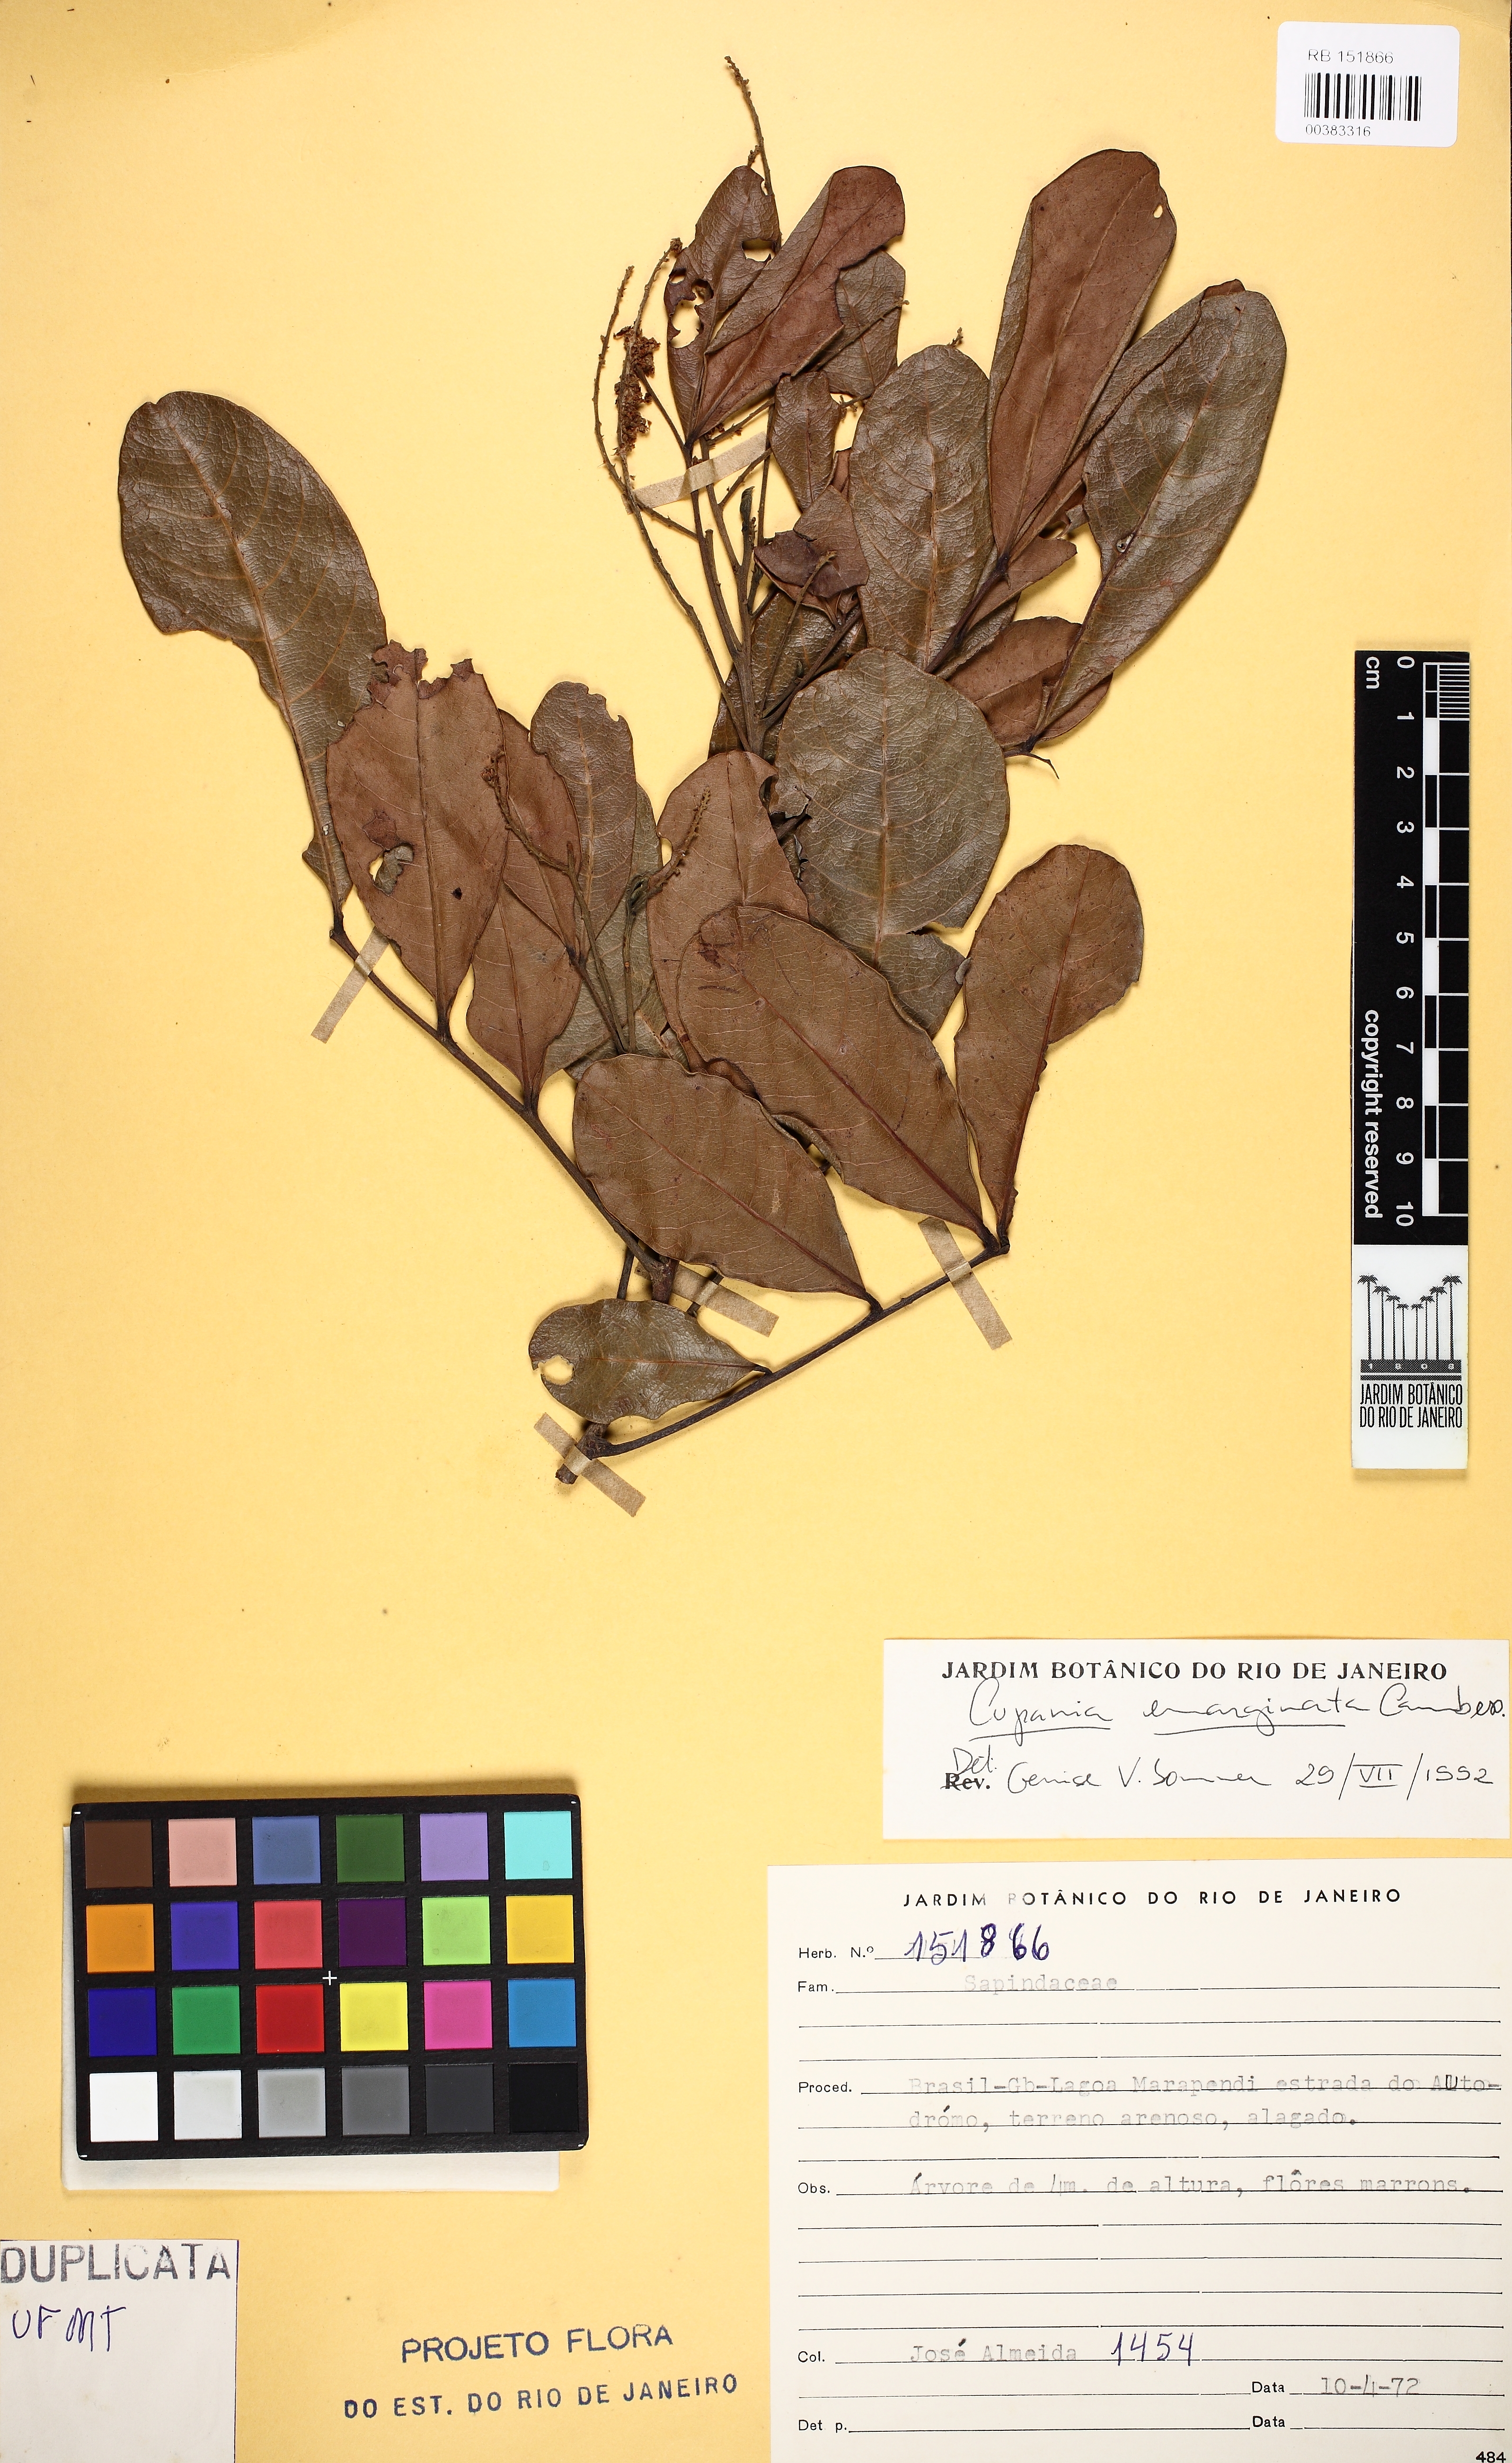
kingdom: Plantae
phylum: Tracheophyta
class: Magnoliopsida
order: Sapindales
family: Sapindaceae
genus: Cupania
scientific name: Cupania emarginata
